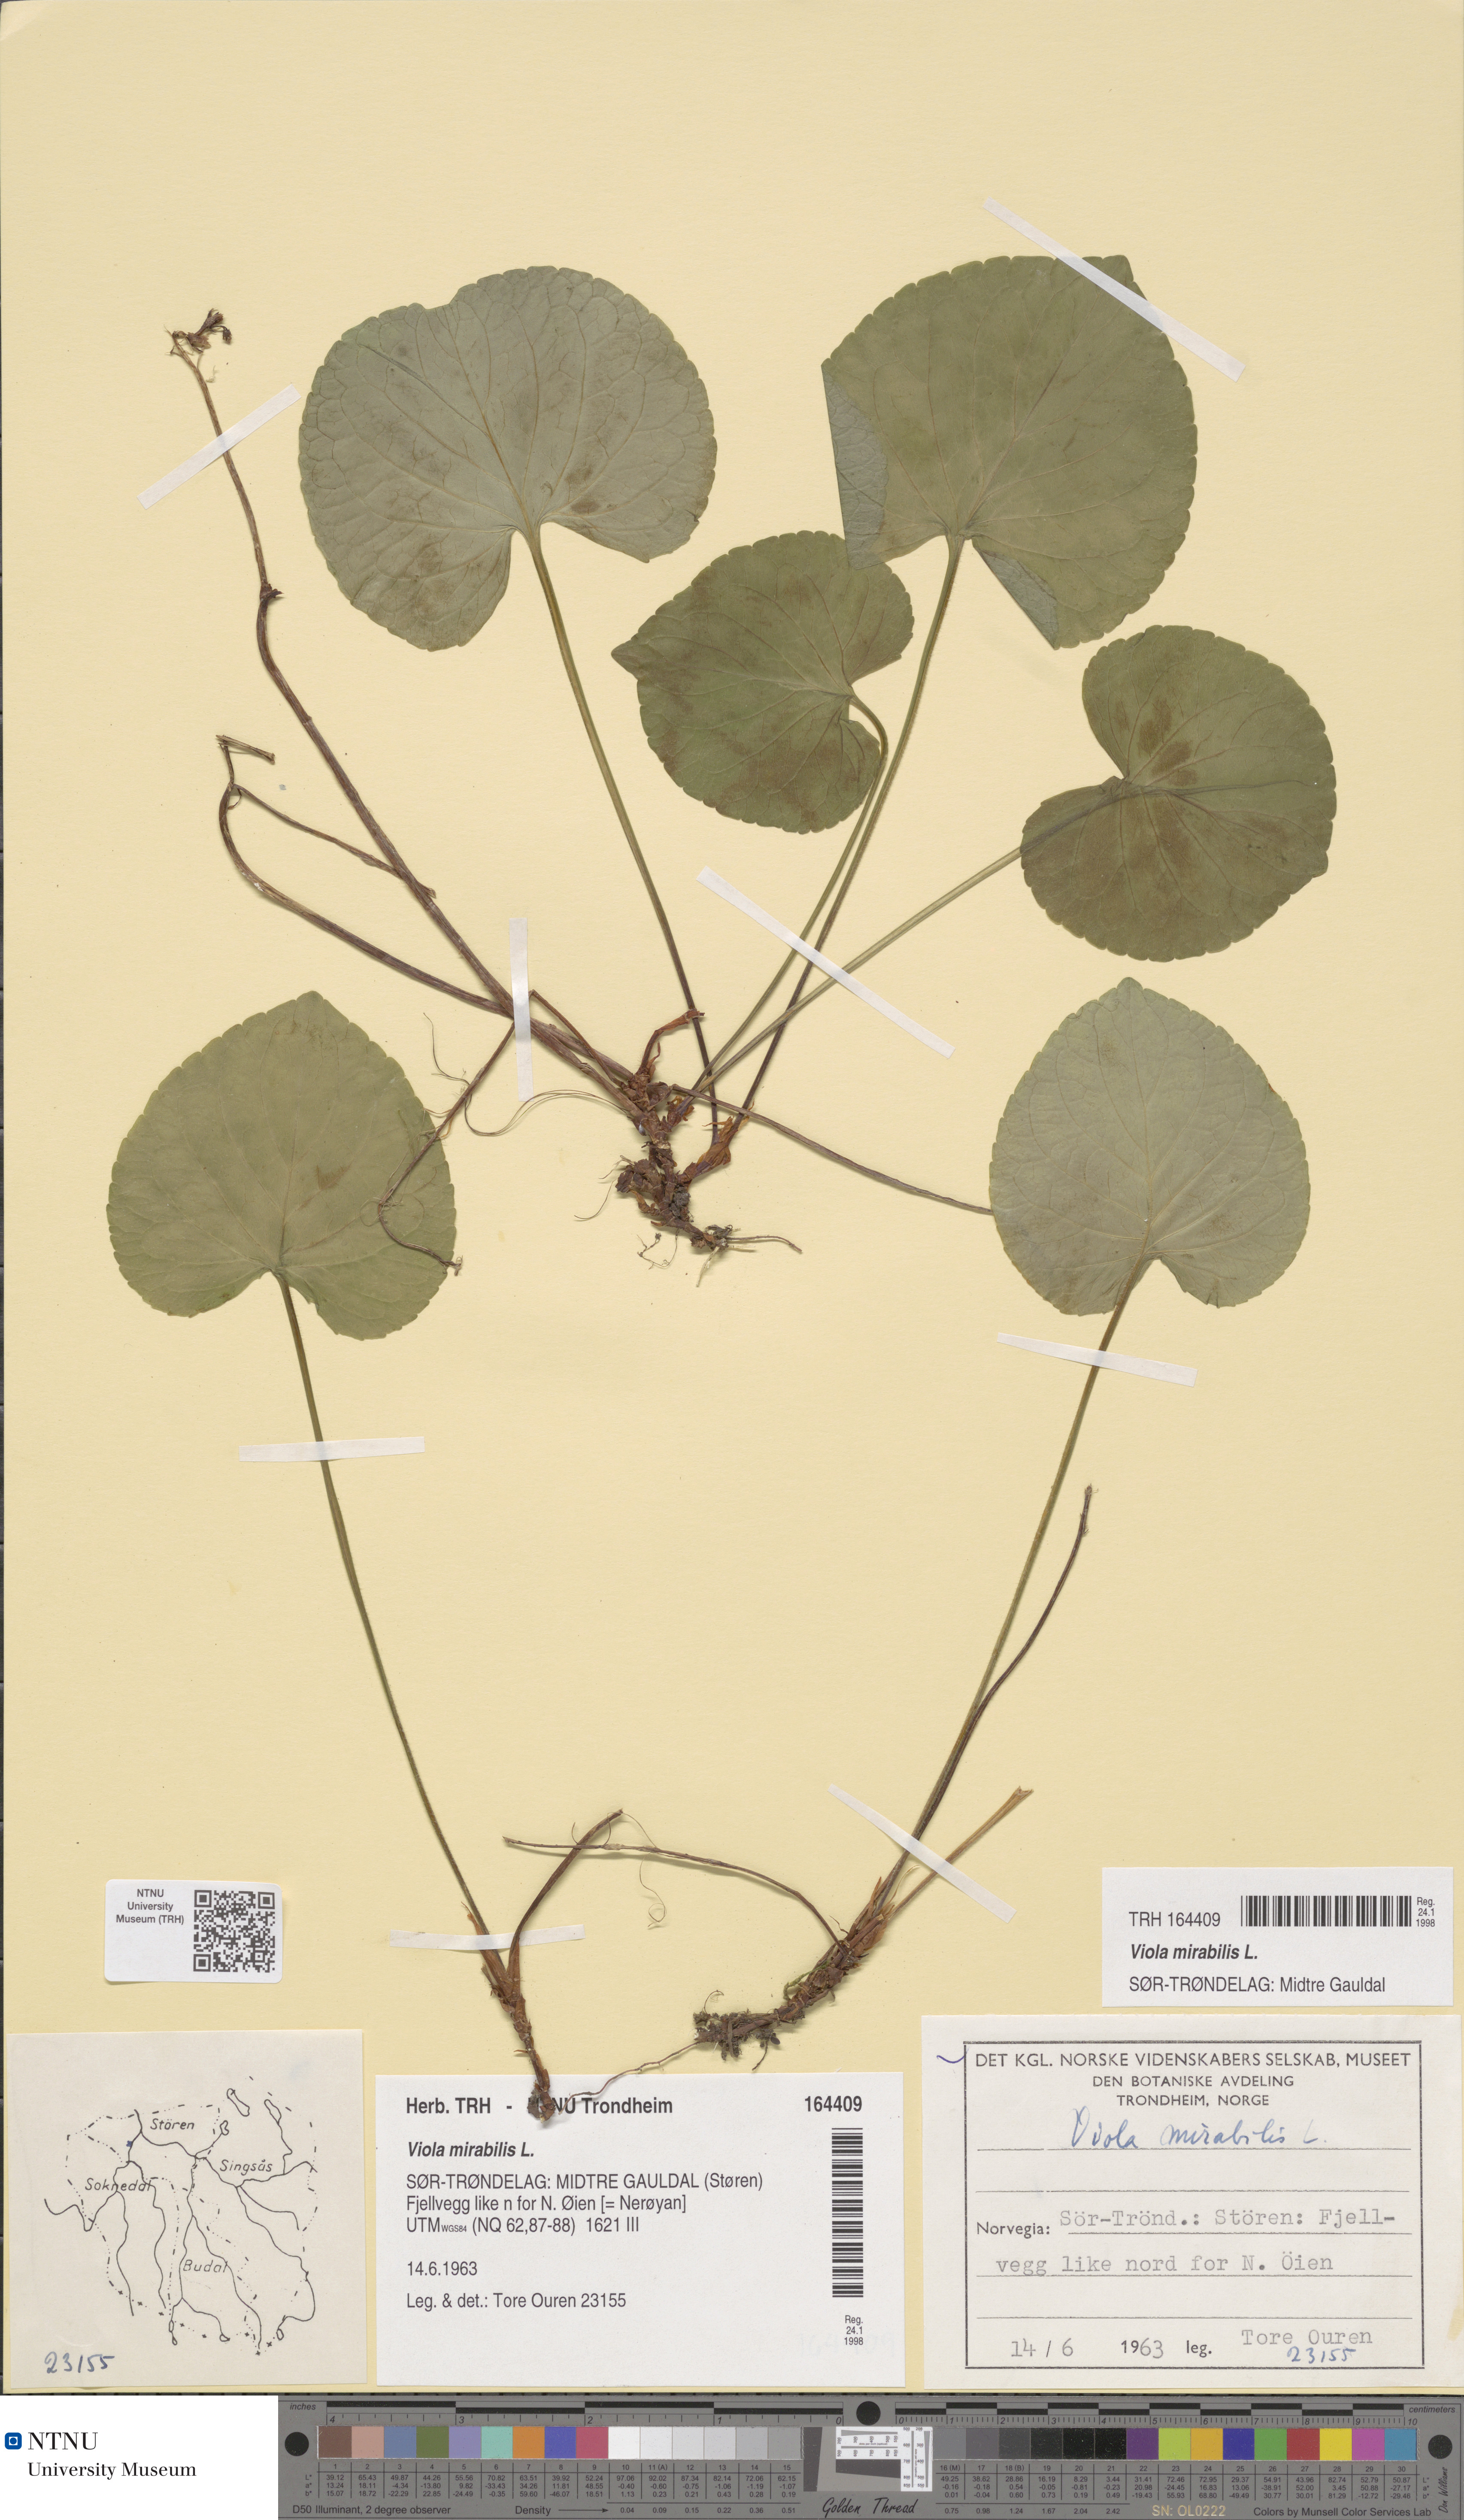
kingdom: Plantae
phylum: Tracheophyta
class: Magnoliopsida
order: Malpighiales
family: Violaceae
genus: Viola
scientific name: Viola mirabilis
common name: Wonder violet
